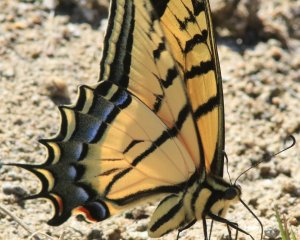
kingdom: Animalia
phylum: Arthropoda
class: Insecta
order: Lepidoptera
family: Papilionidae
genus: Papilio
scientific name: Papilio multicaudata
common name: Two-tailed Swallowtail
